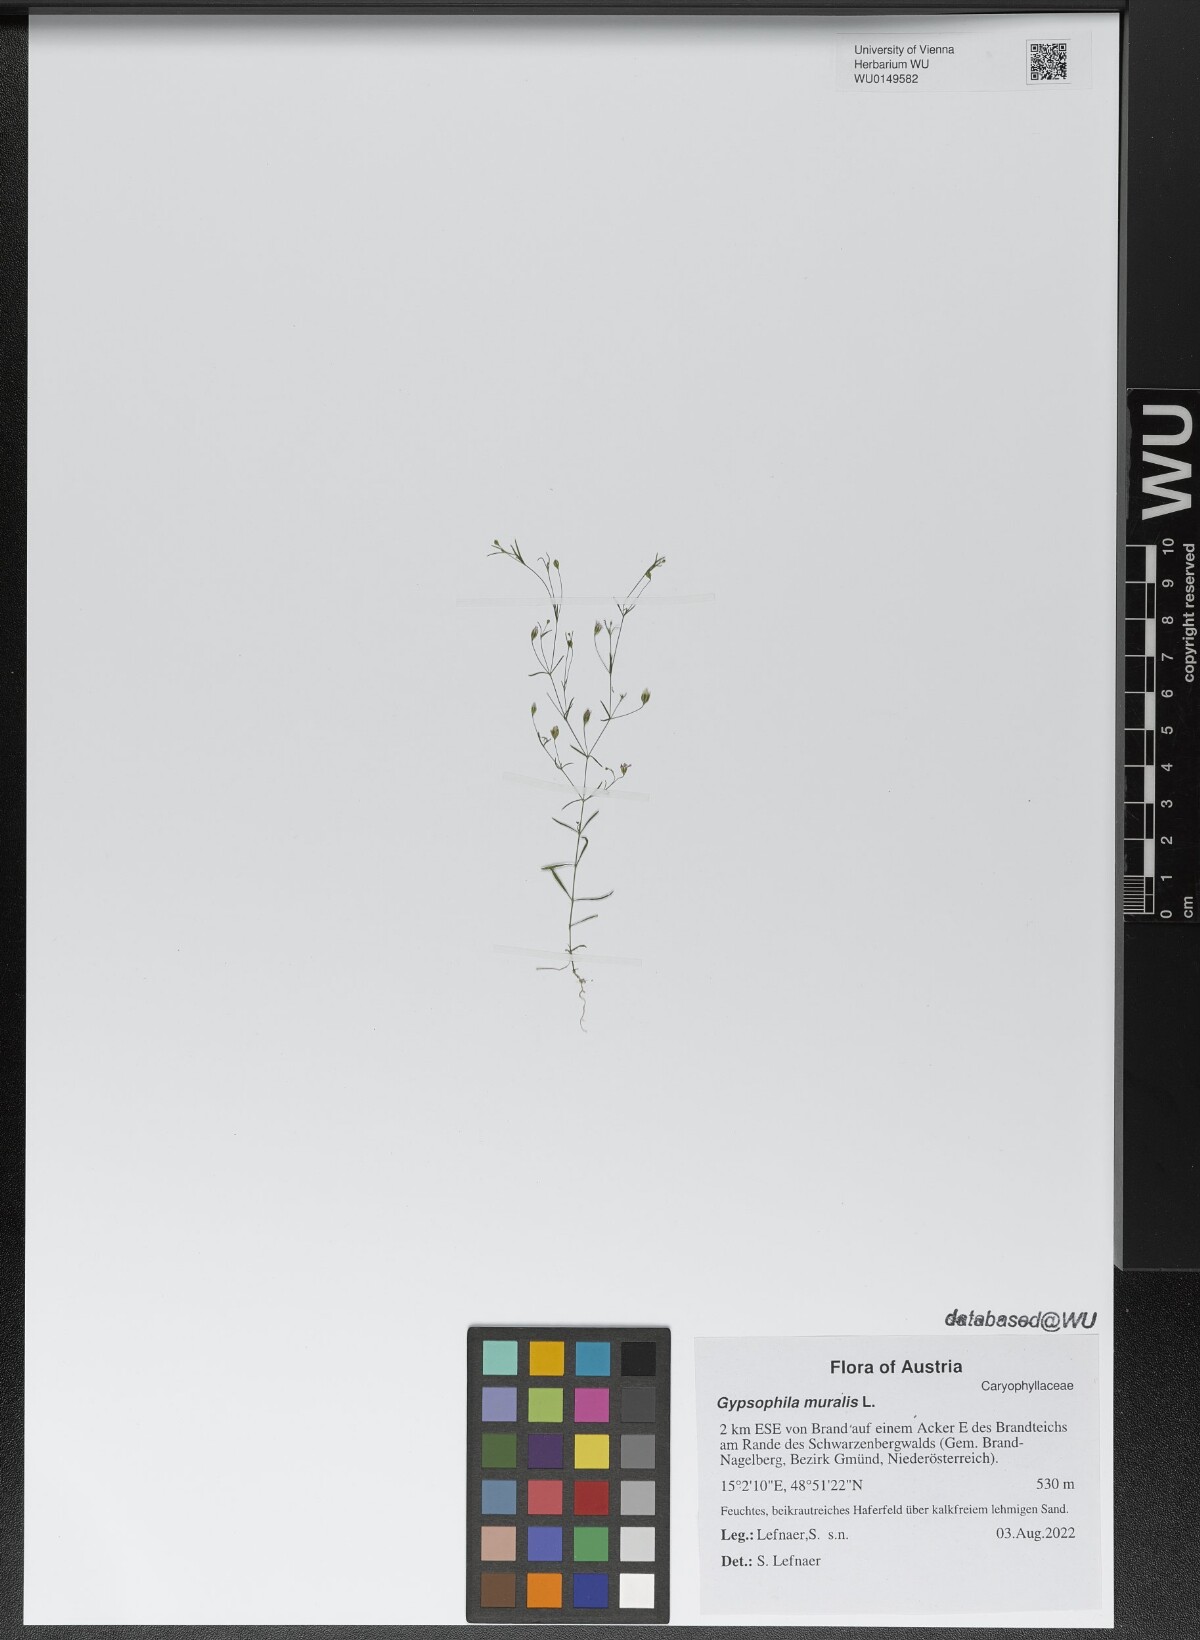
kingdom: Plantae
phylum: Tracheophyta
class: Magnoliopsida
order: Caryophyllales
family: Caryophyllaceae
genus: Psammophiliella
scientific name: Psammophiliella muralis
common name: Cushion baby's-breath
